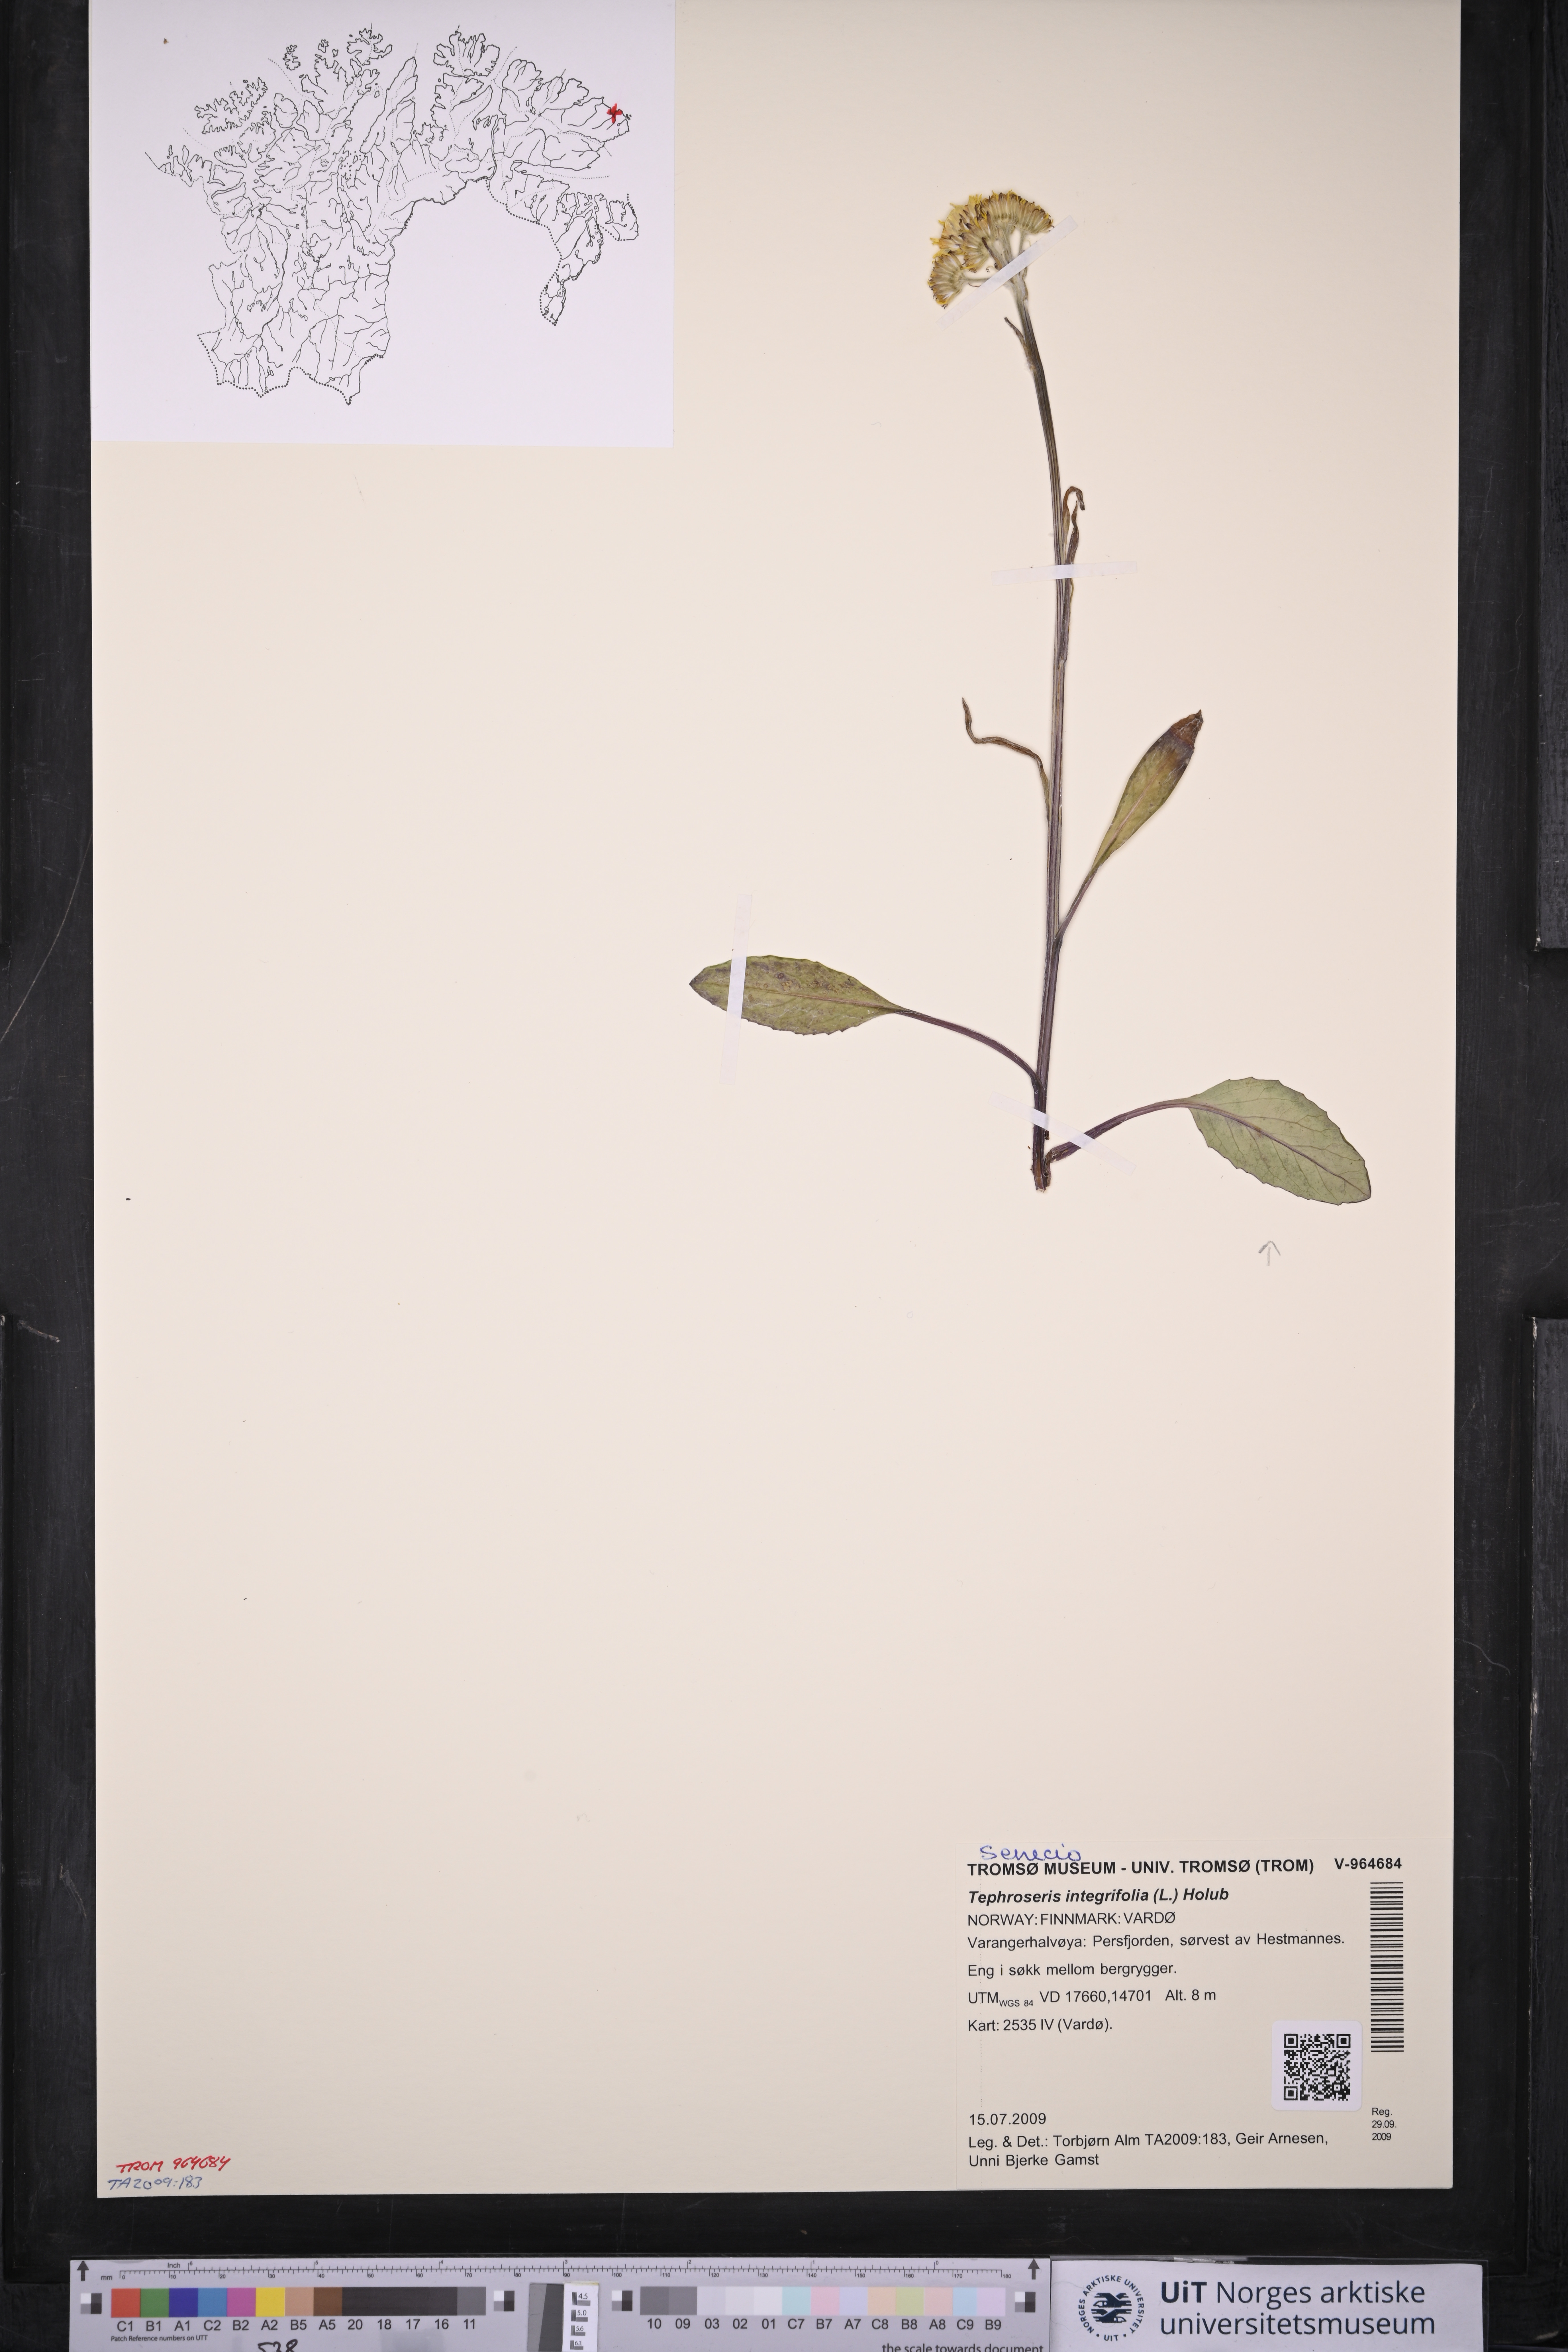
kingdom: Plantae
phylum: Tracheophyta
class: Magnoliopsida
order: Asterales
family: Asteraceae
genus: Tephroseris
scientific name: Tephroseris integrifolia
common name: Field fleawort
